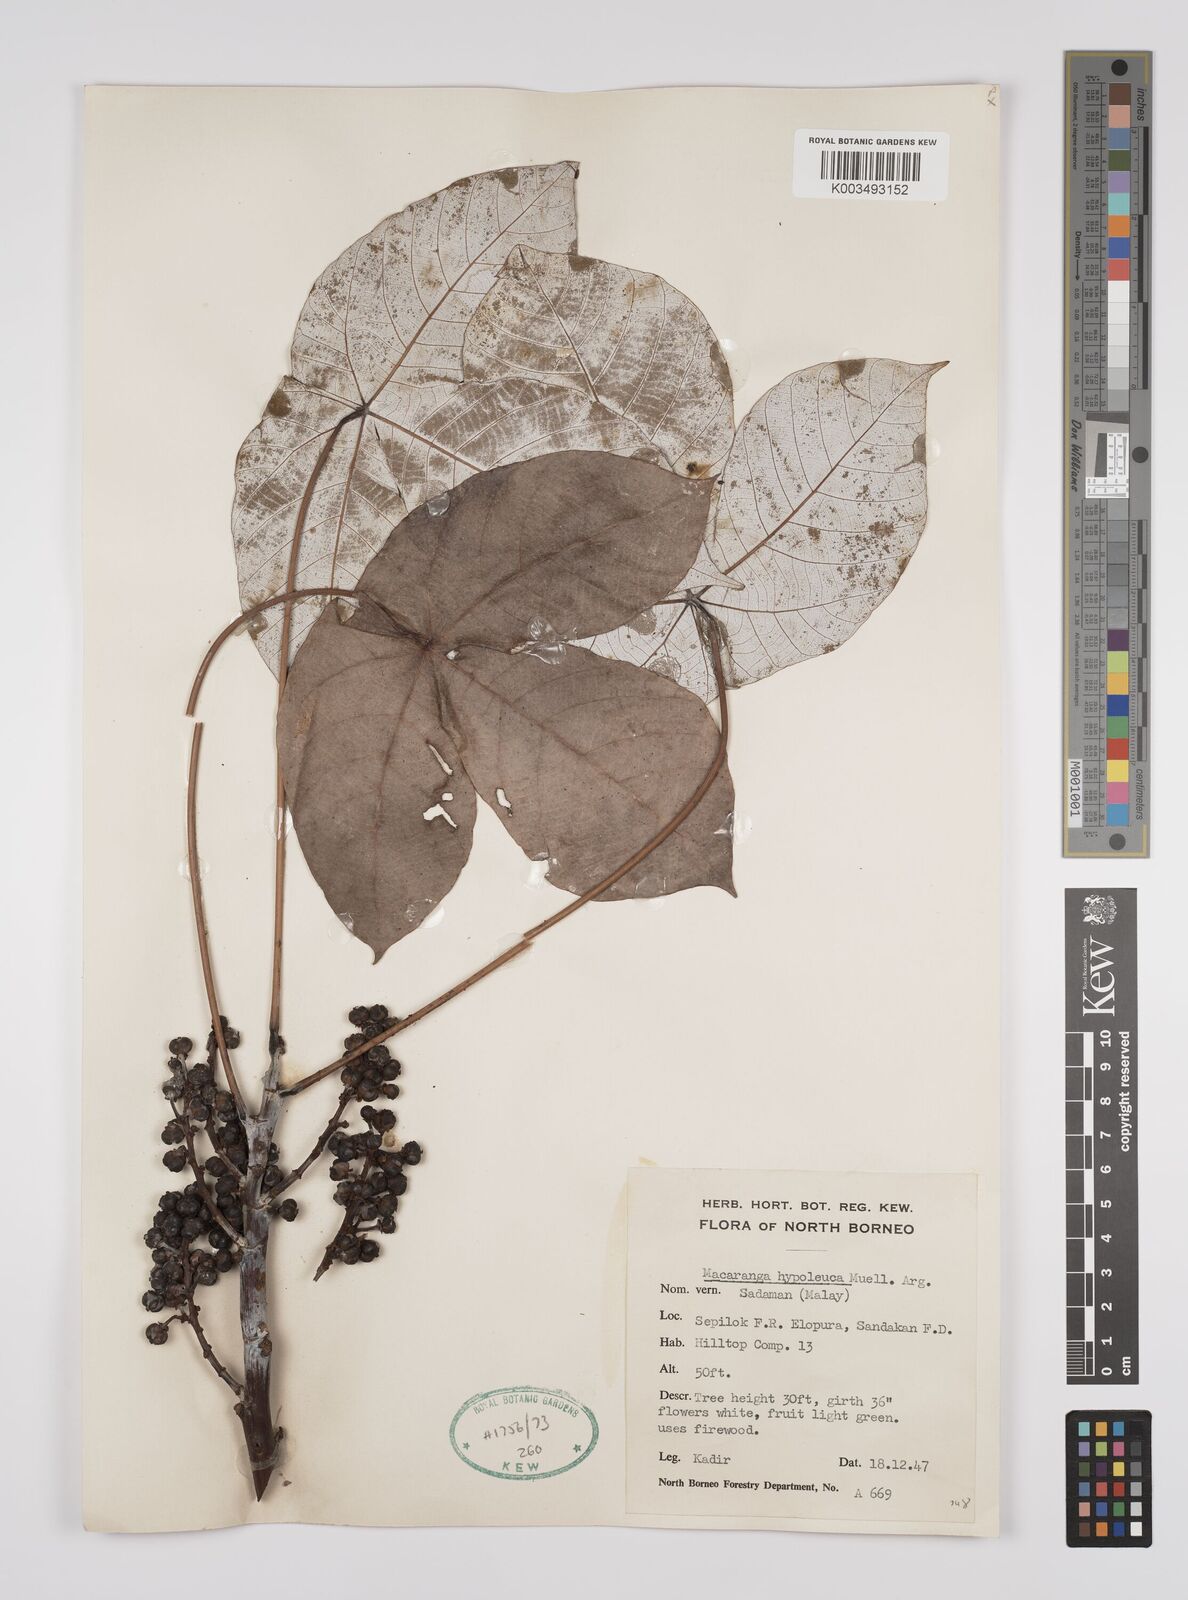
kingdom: Plantae
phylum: Tracheophyta
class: Magnoliopsida
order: Malpighiales
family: Euphorbiaceae
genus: Macaranga
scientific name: Macaranga hypoleuca
